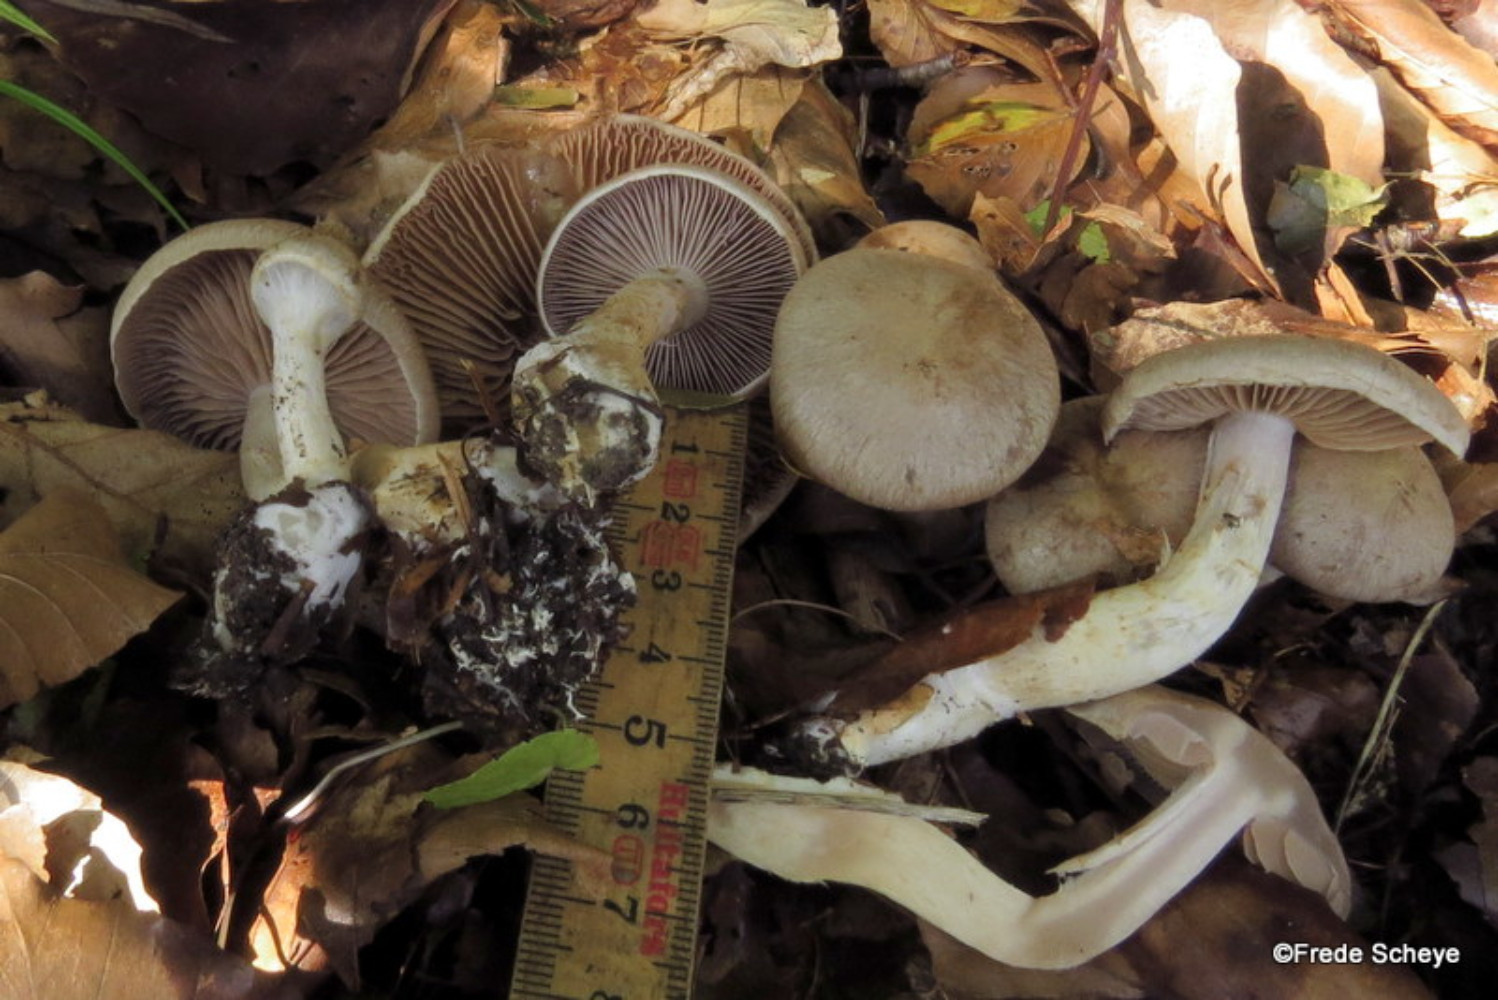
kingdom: Fungi
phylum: Basidiomycota
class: Agaricomycetes
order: Agaricales
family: Cortinariaceae
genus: Cortinarius
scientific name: Cortinarius
